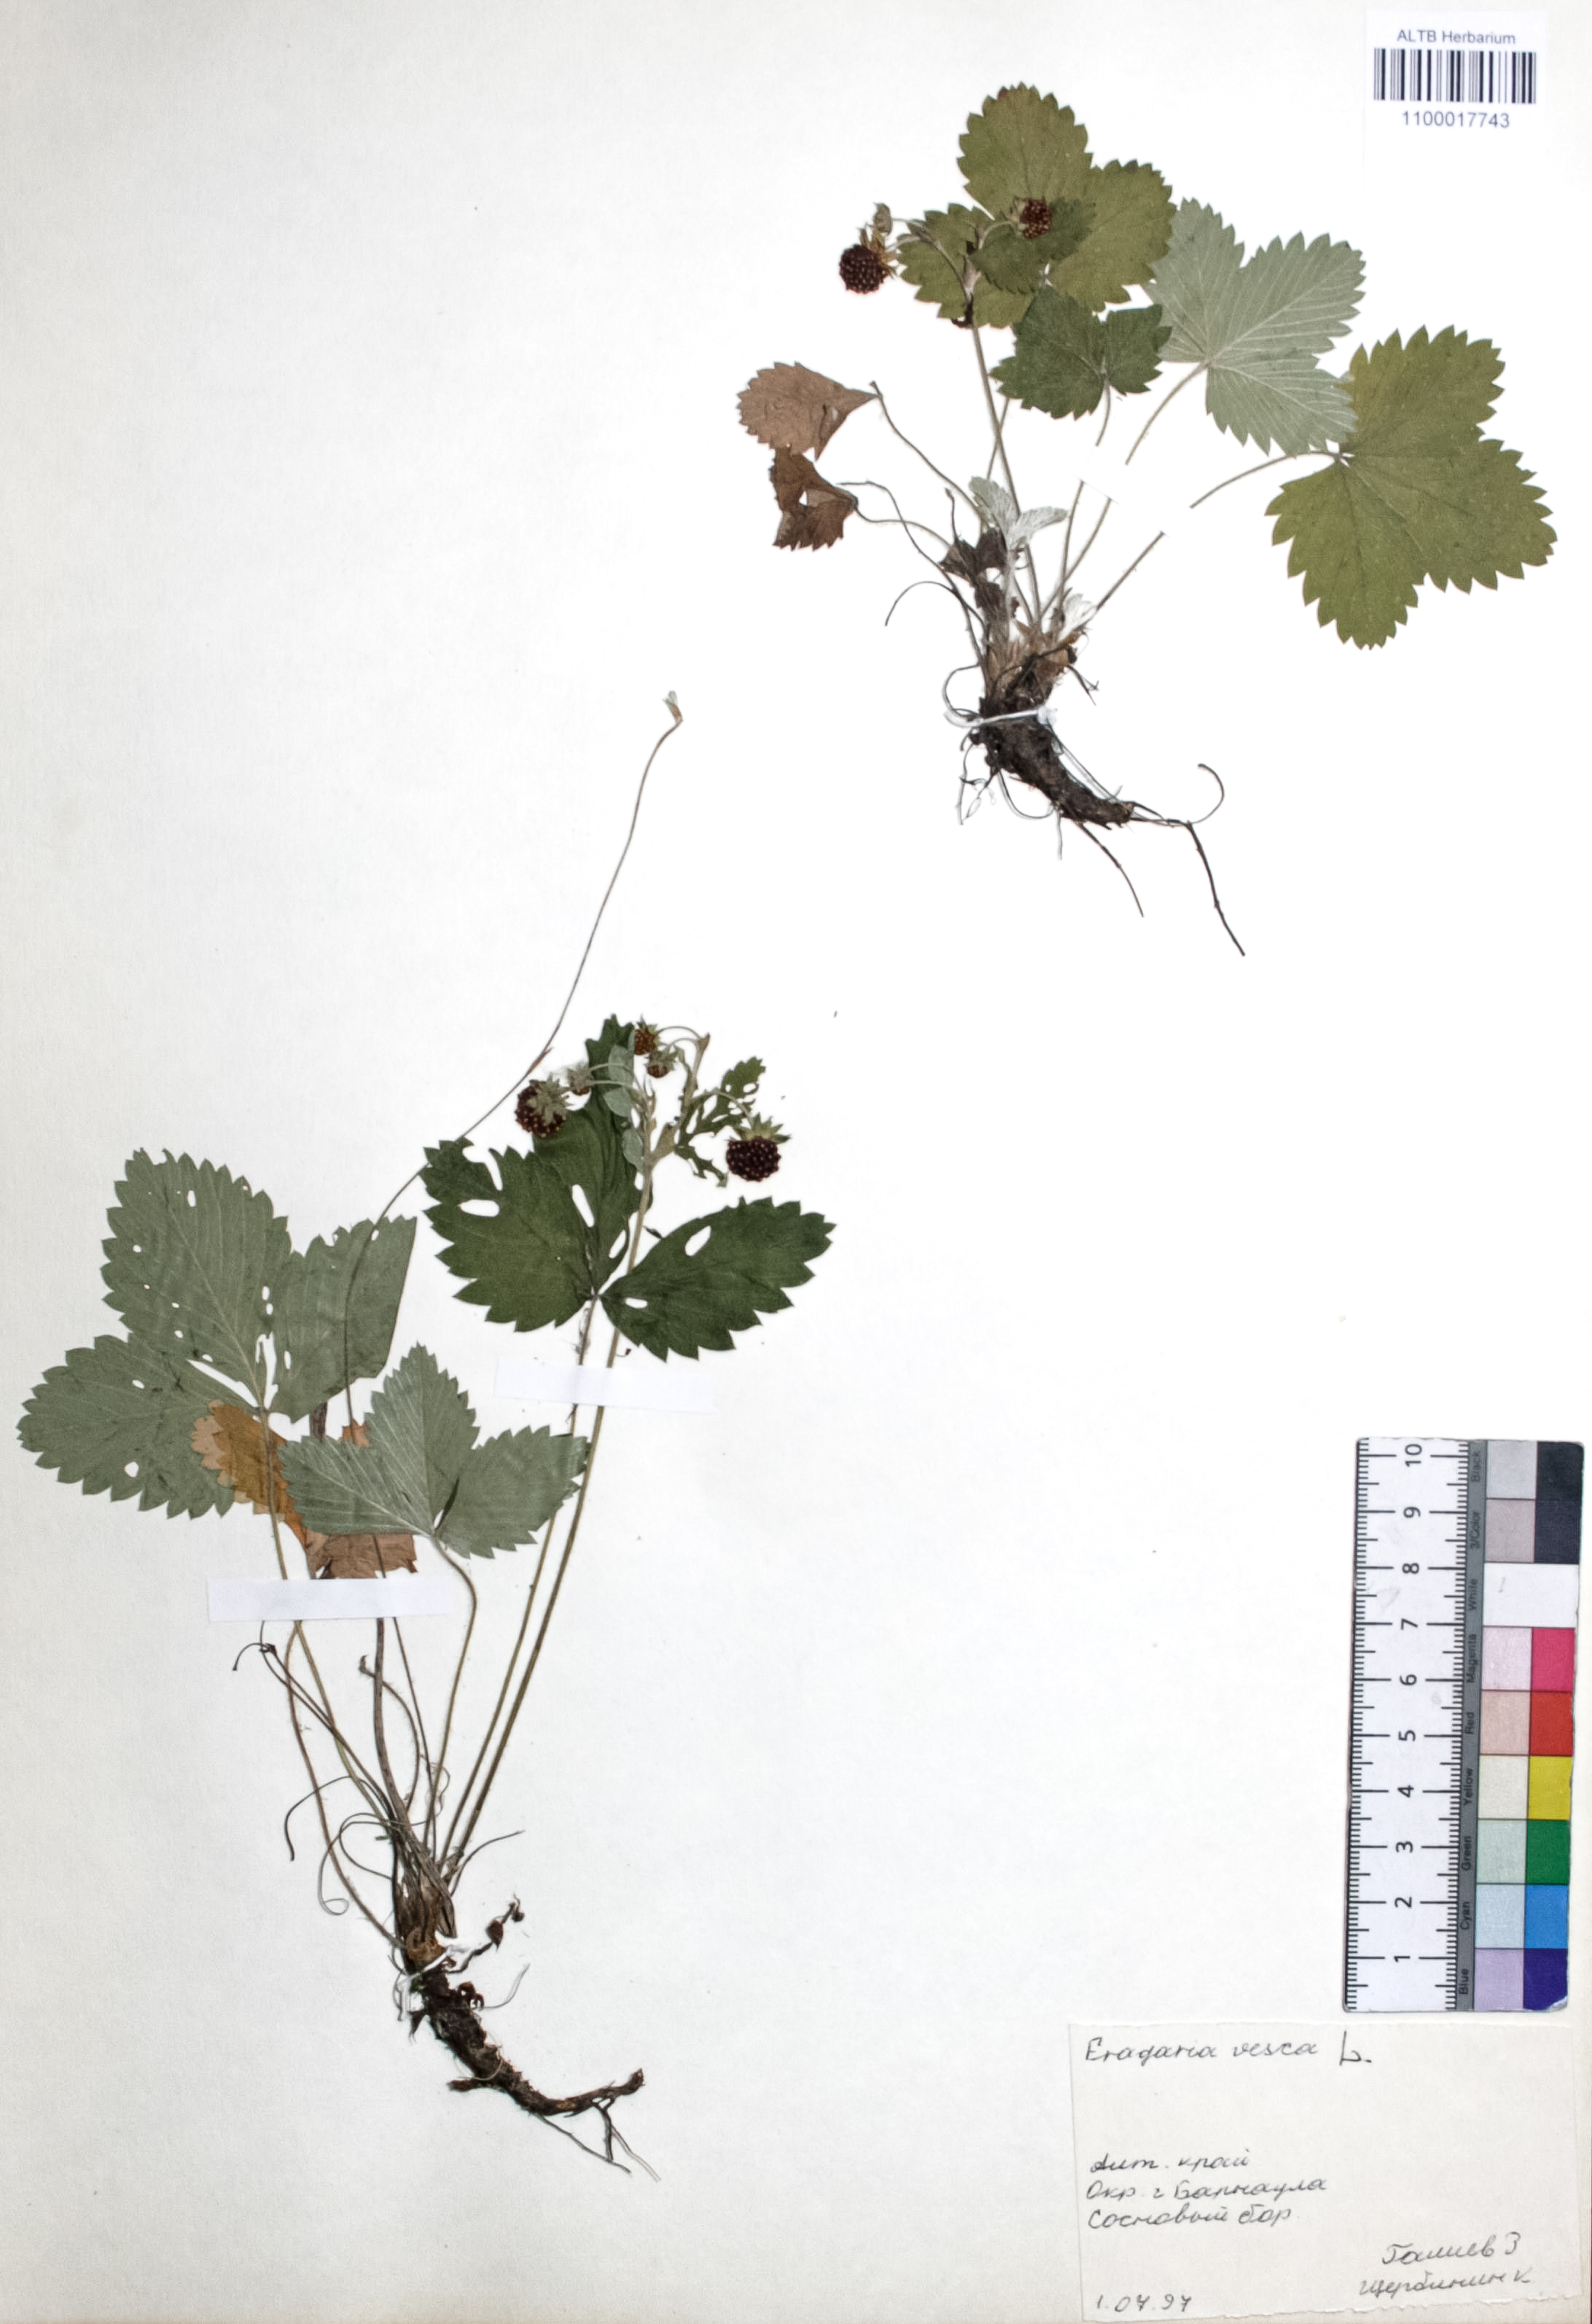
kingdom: Plantae
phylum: Tracheophyta
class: Magnoliopsida
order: Rosales
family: Rosaceae
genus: Fragaria
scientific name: Fragaria vesca
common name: Wild strawberry
